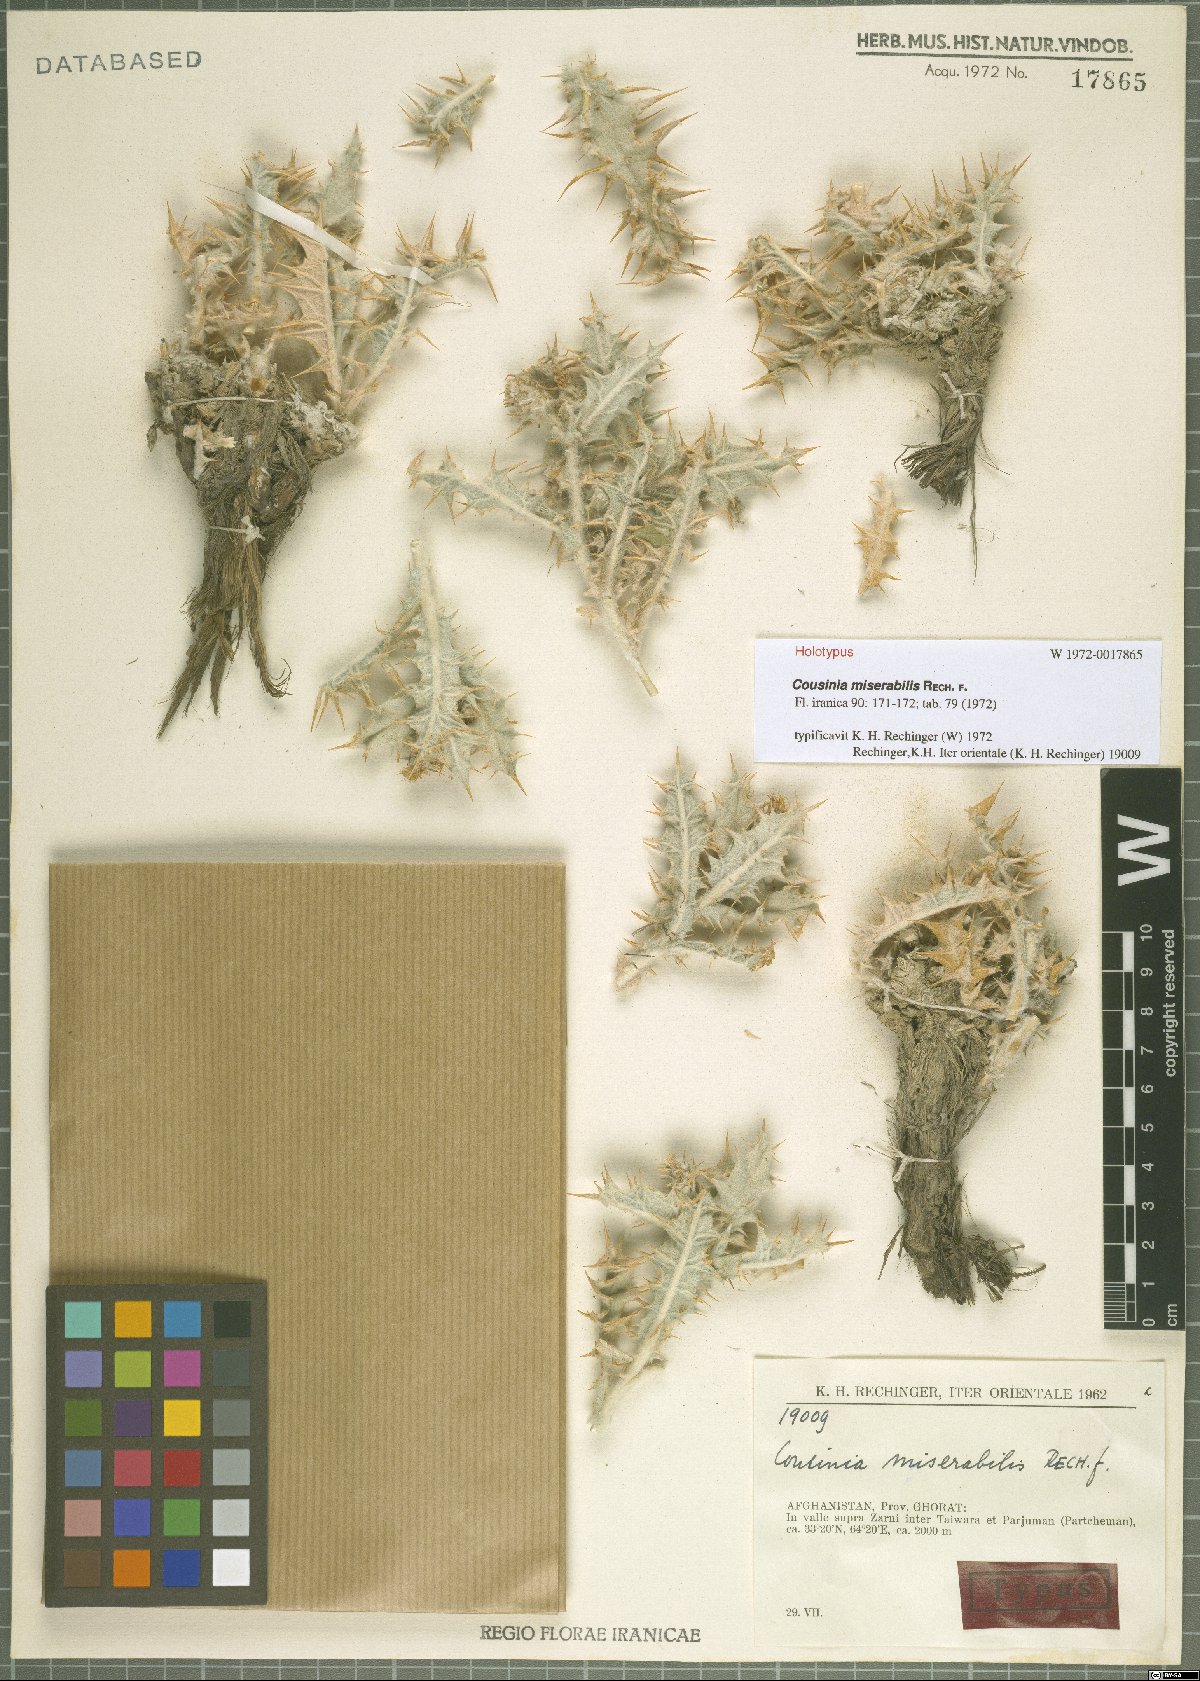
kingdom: Plantae
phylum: Tracheophyta
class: Magnoliopsida
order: Asterales
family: Asteraceae
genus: Cousinia
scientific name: Cousinia miserabilis
